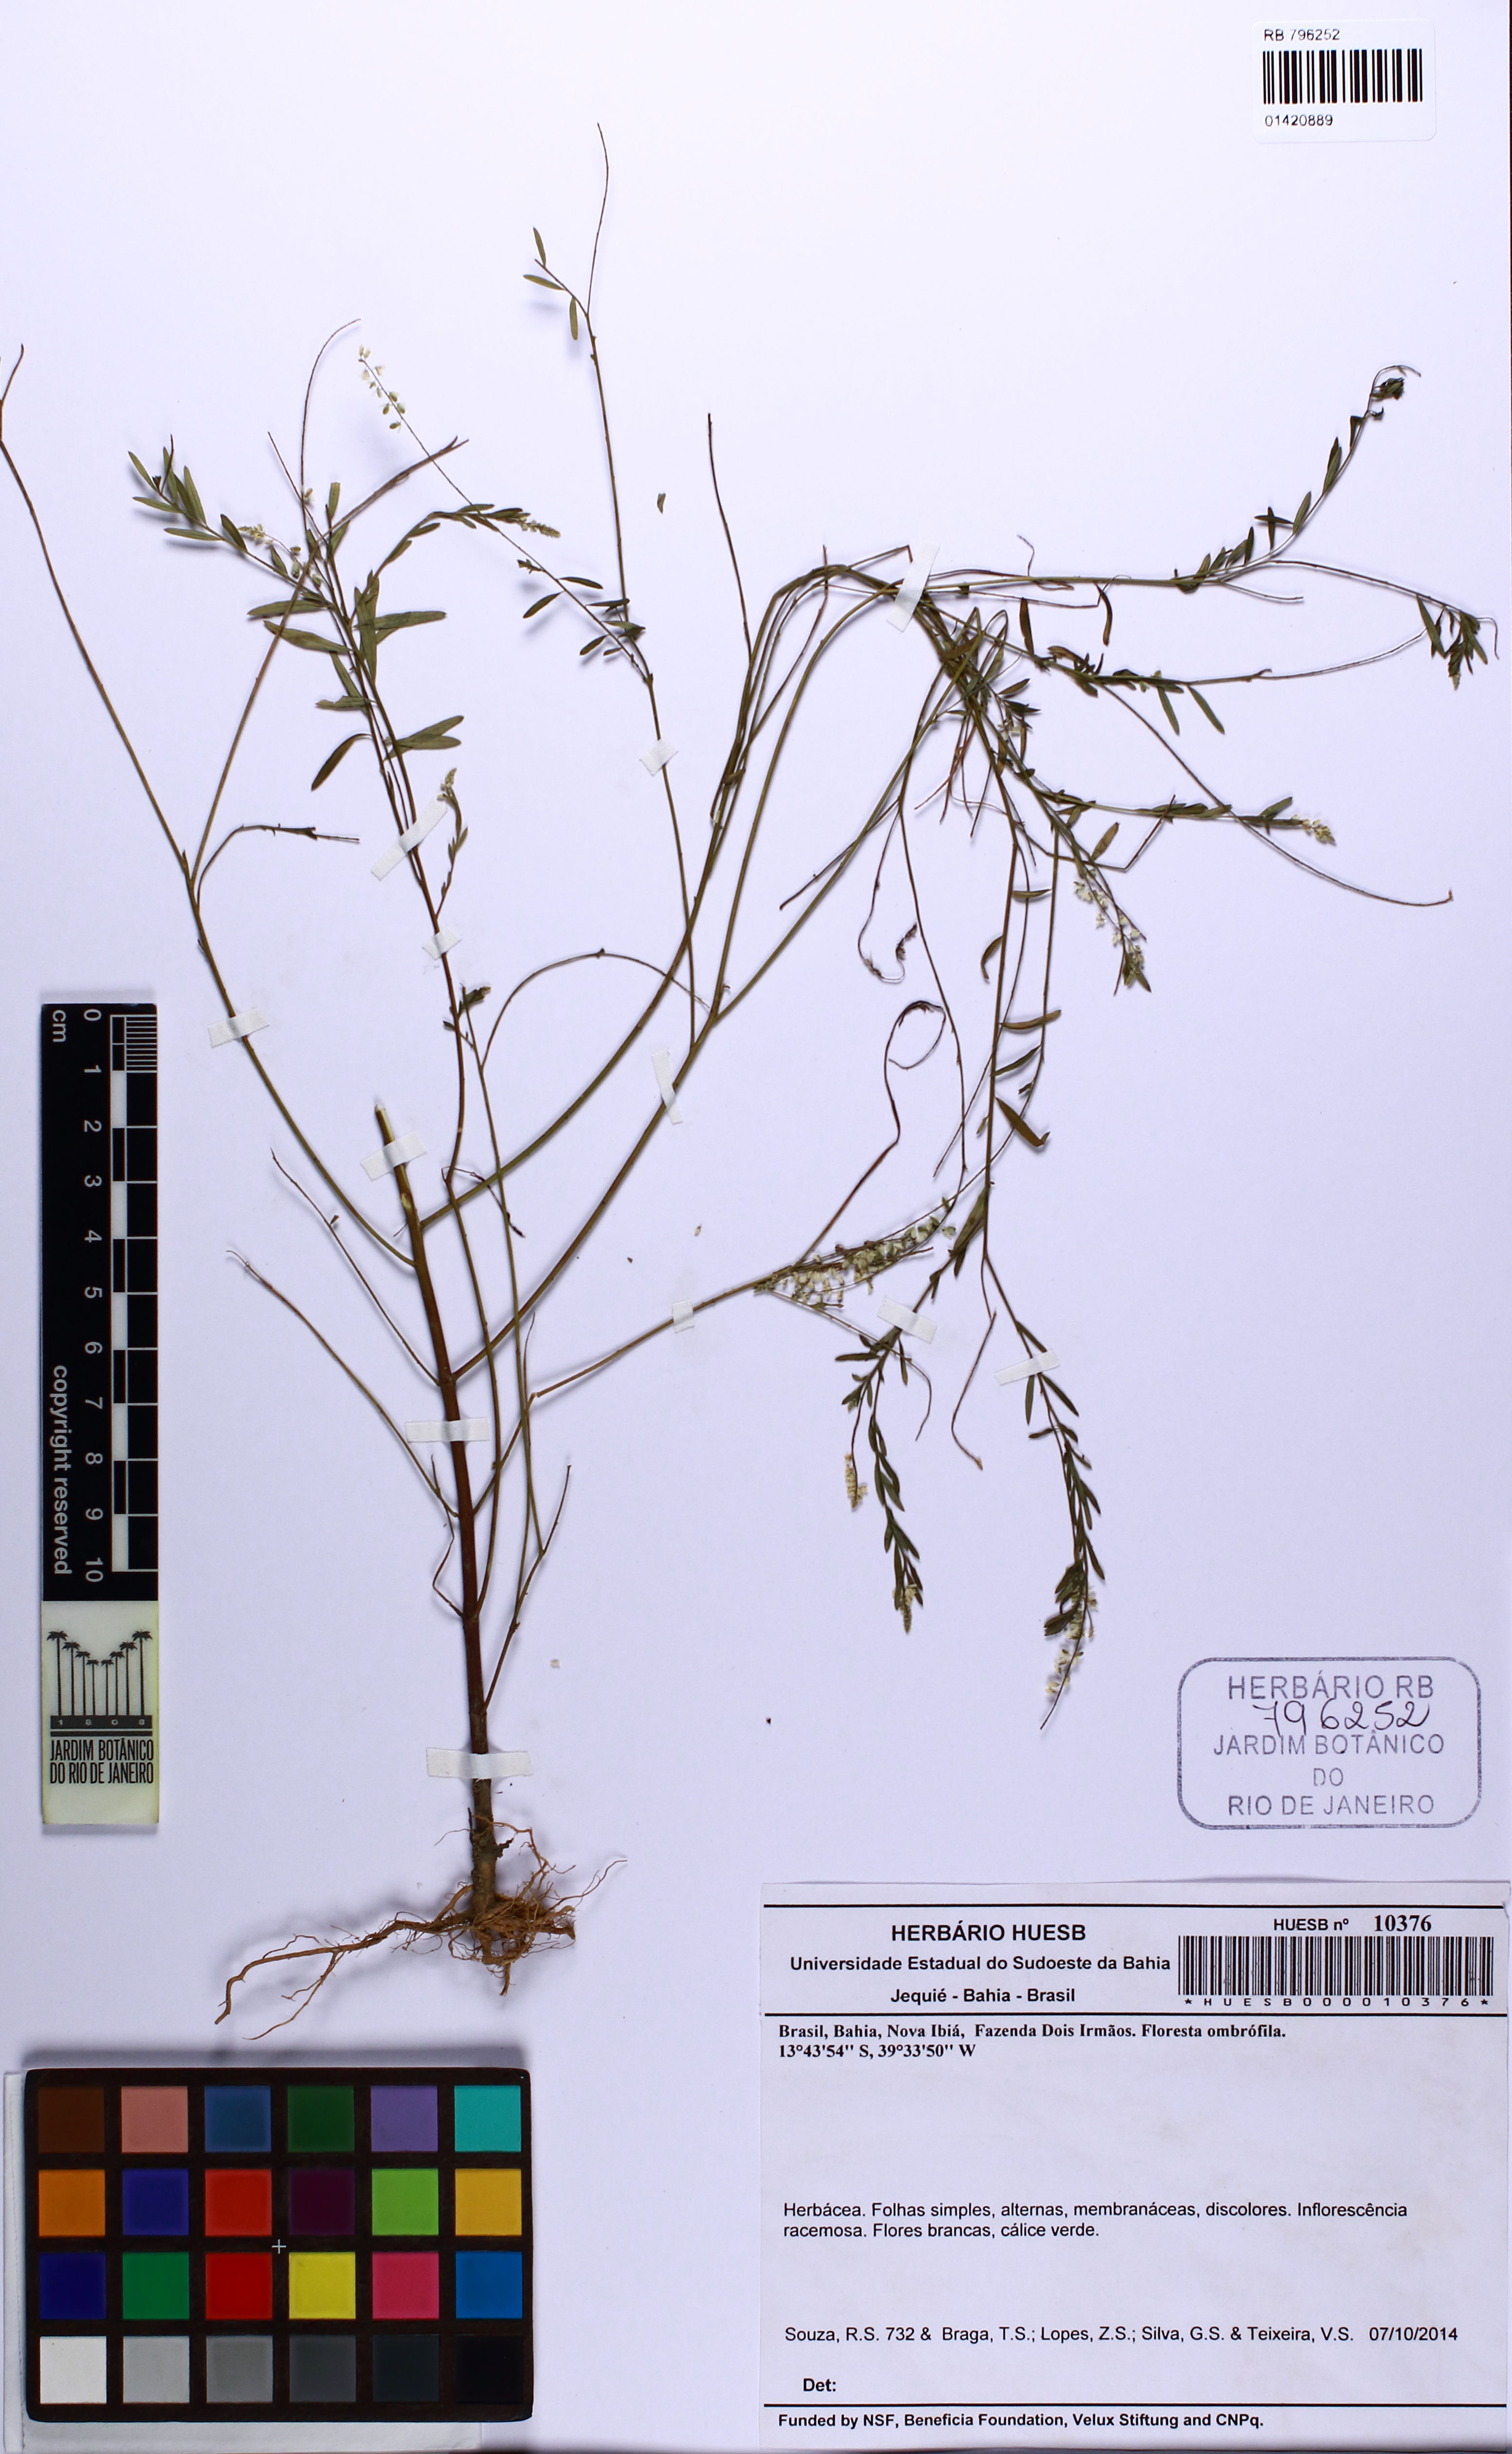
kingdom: Plantae
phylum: Tracheophyta
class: Magnoliopsida
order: Fabales
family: Polygalaceae
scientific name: Polygalaceae
